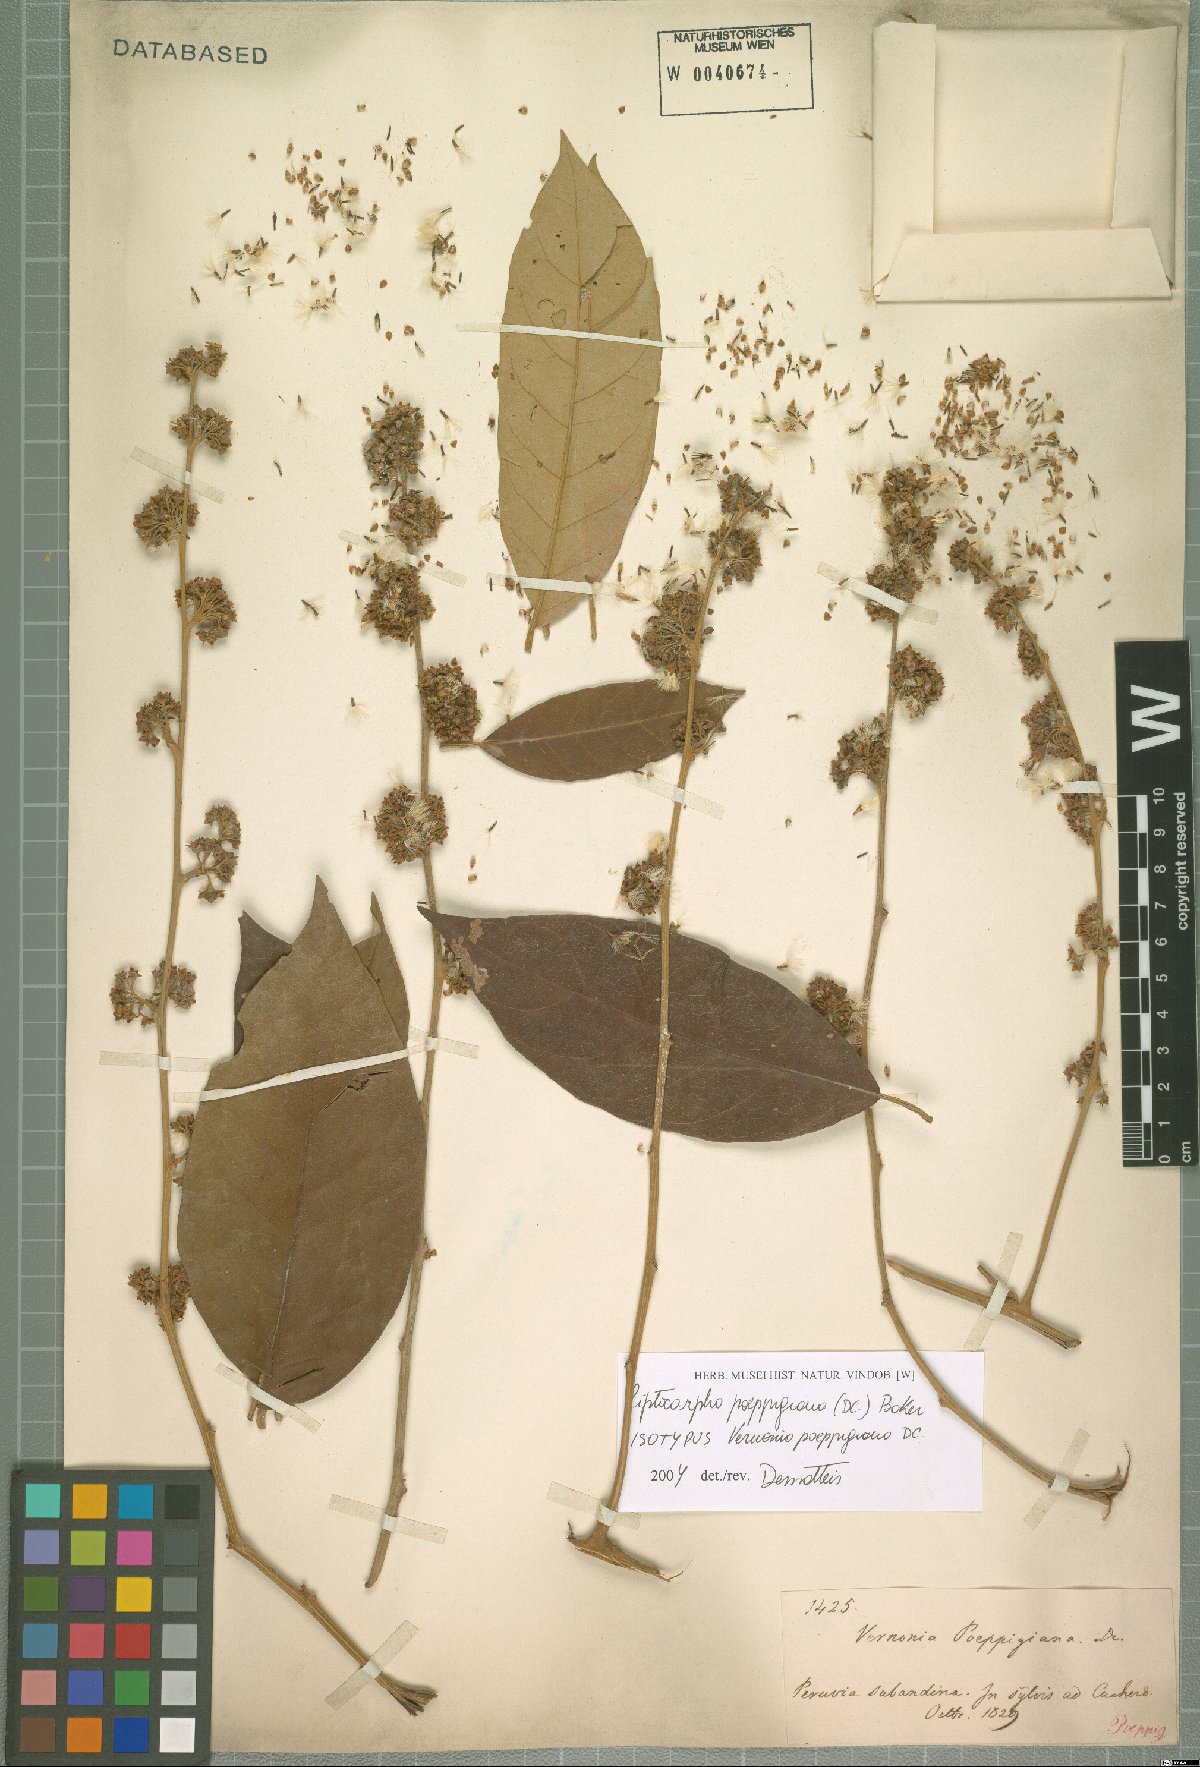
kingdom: Plantae
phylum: Tracheophyta
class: Magnoliopsida
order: Asterales
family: Asteraceae
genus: Piptocarpha
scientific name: Piptocarpha poeppigiana
